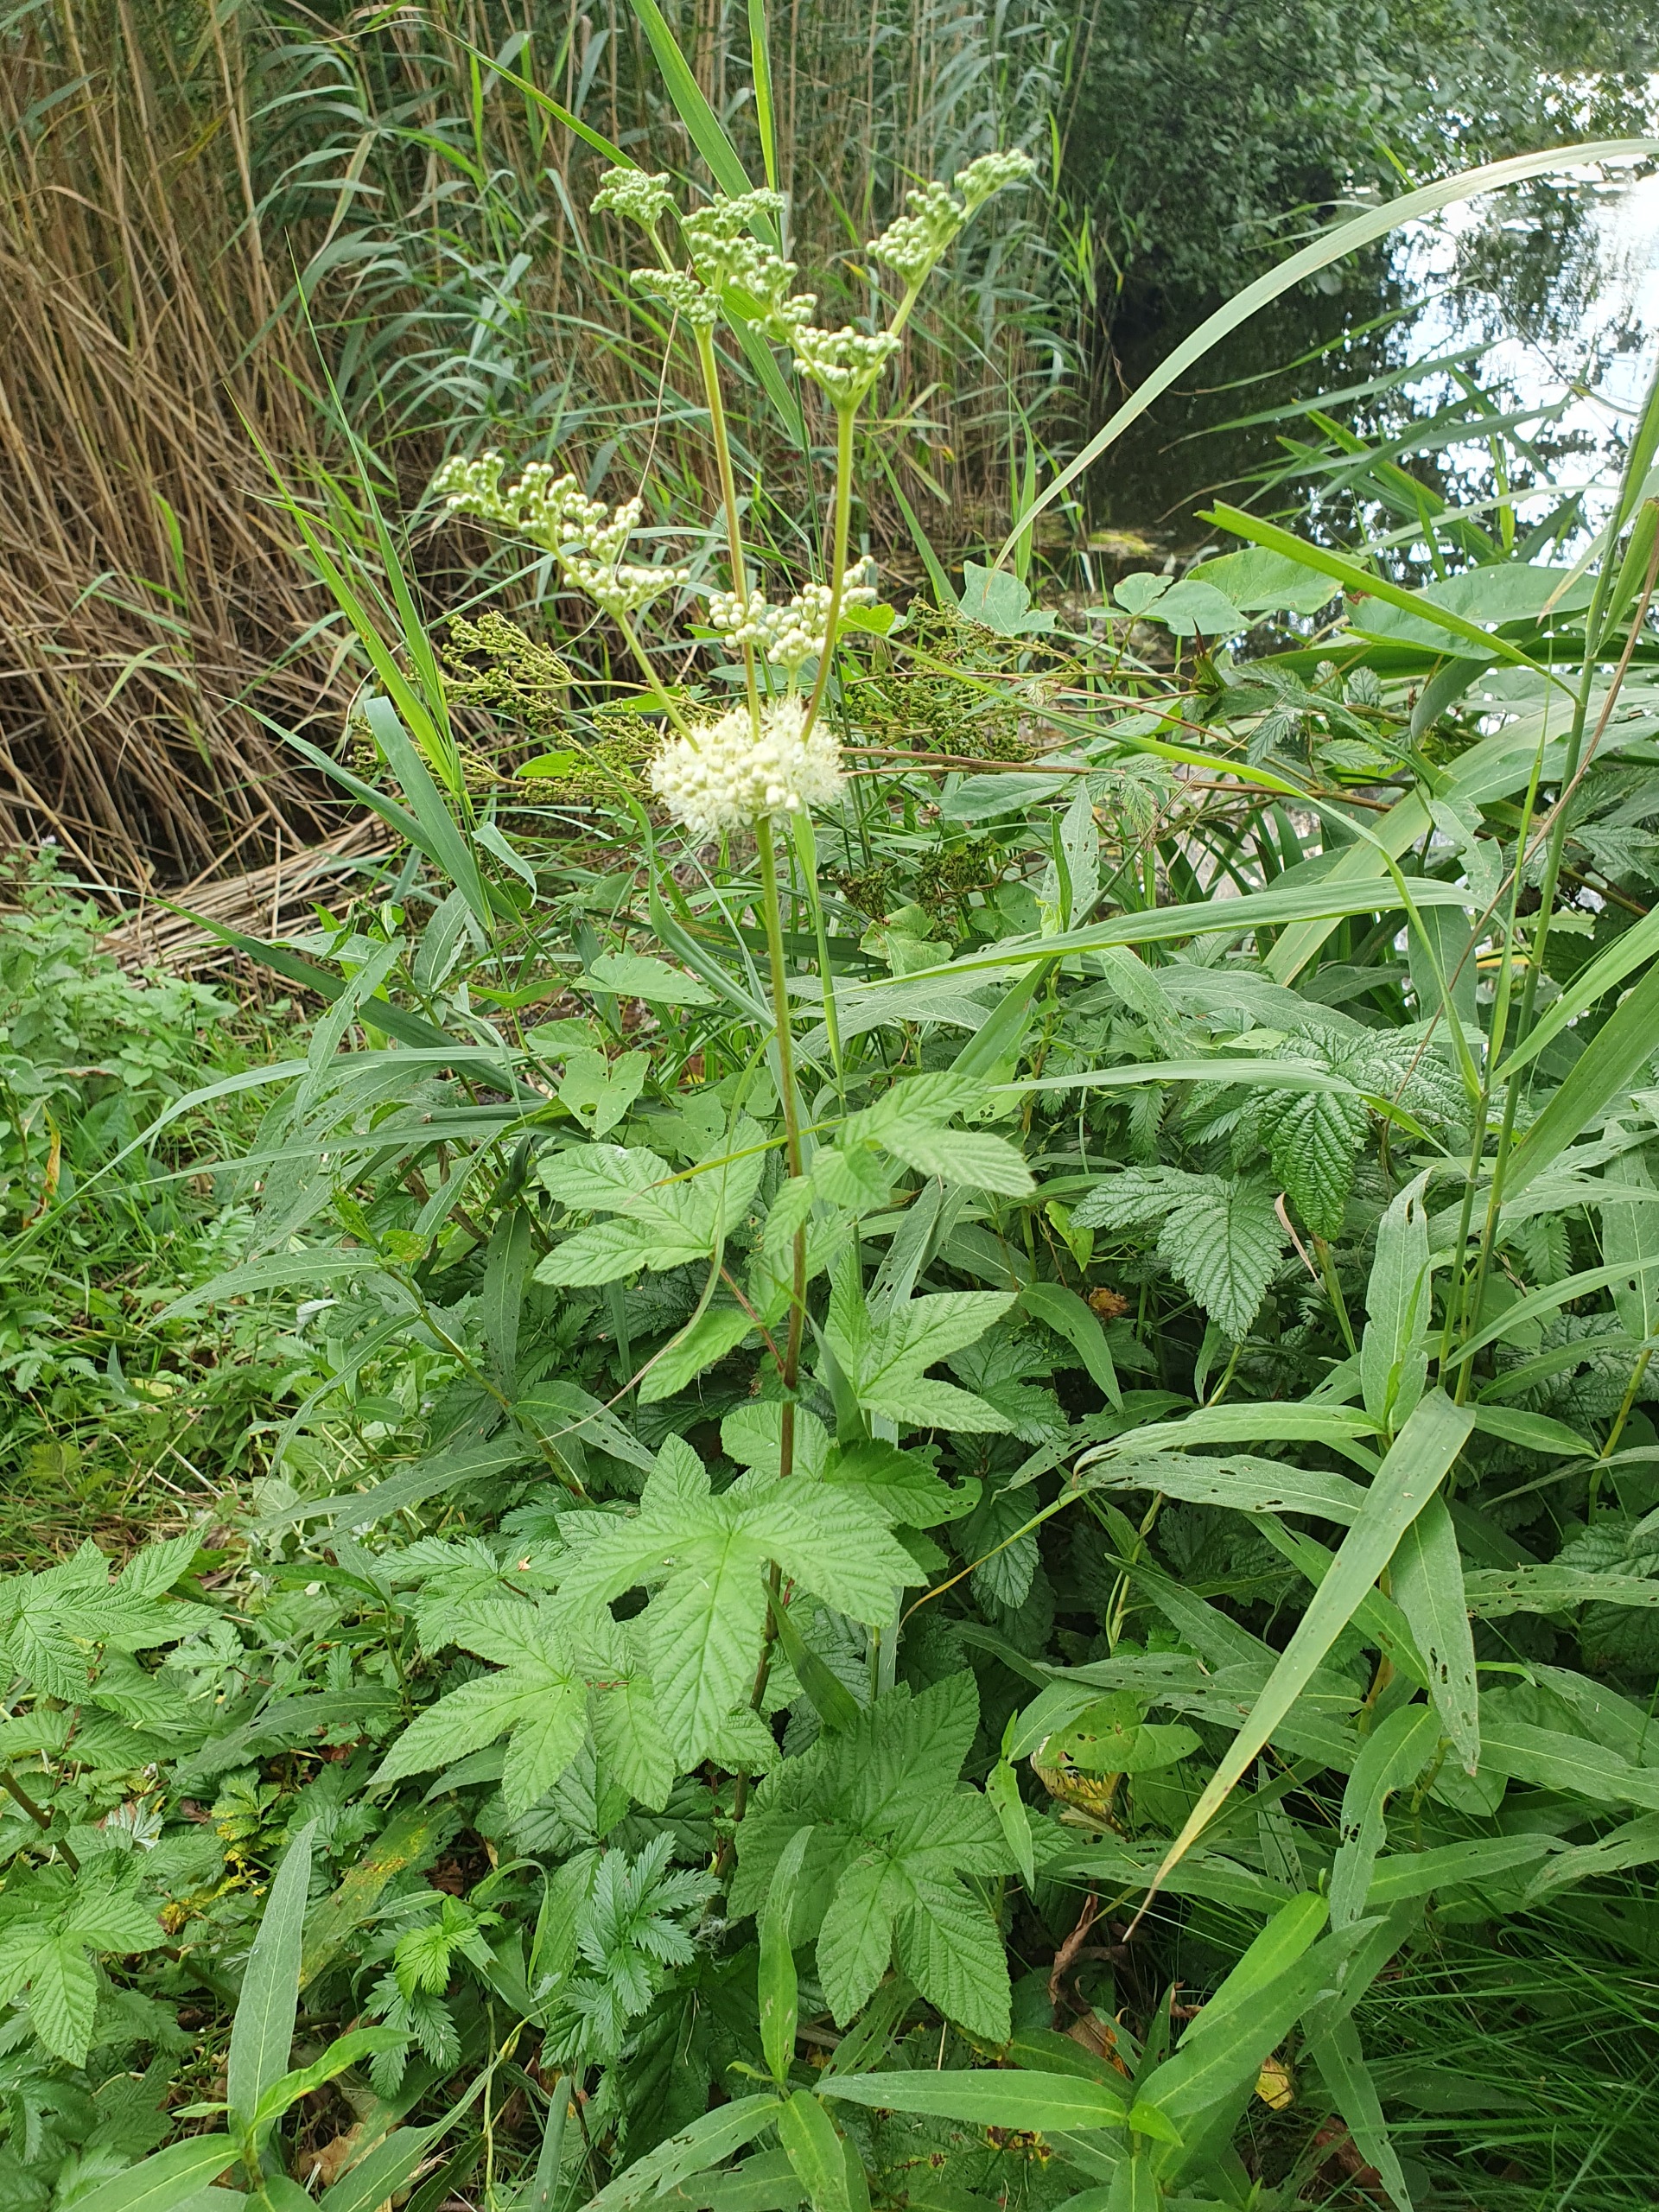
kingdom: Plantae
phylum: Tracheophyta
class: Magnoliopsida
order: Rosales
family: Rosaceae
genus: Filipendula
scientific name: Filipendula ulmaria
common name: Almindelig mjødurt
